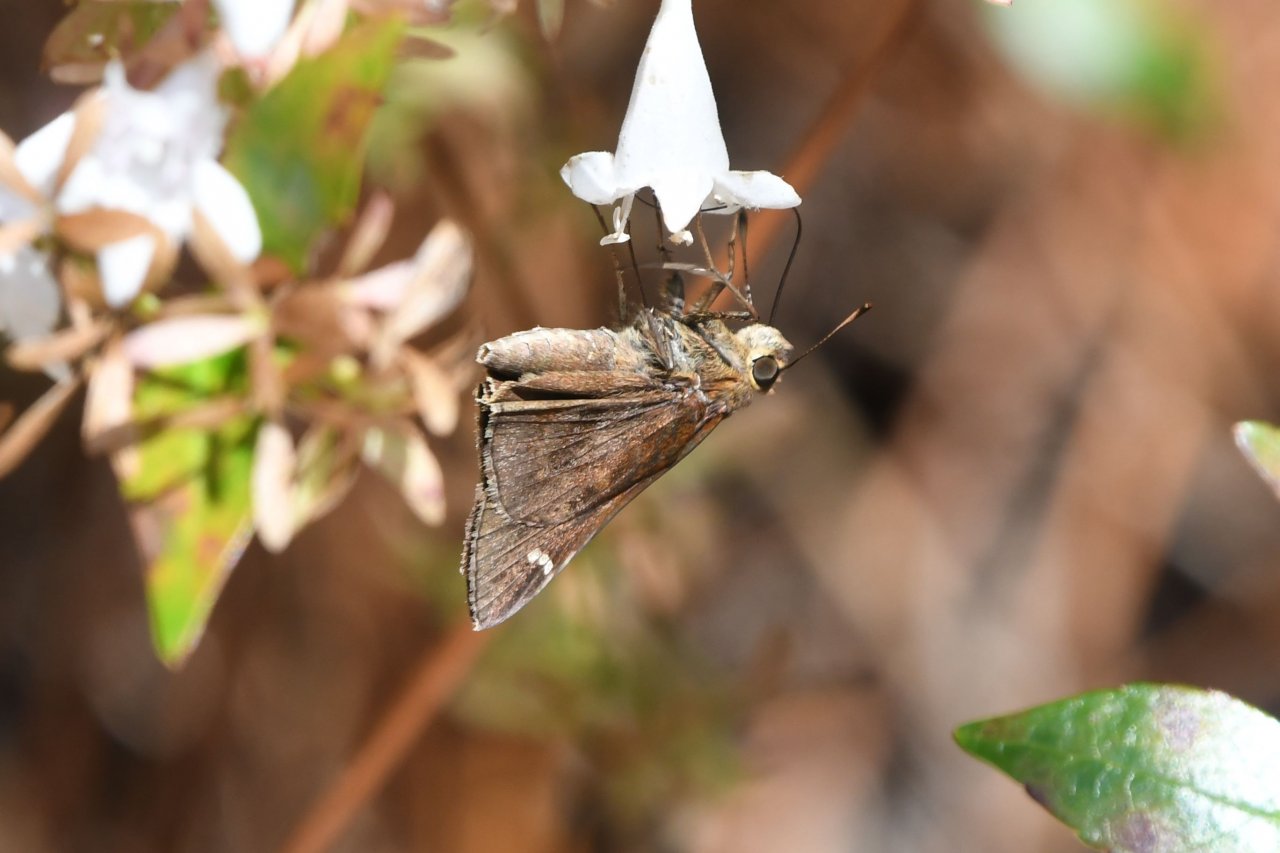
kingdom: Animalia
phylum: Arthropoda
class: Insecta
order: Lepidoptera
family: Hesperiidae
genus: Lerema
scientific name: Lerema accius
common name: Clouded Skipper
